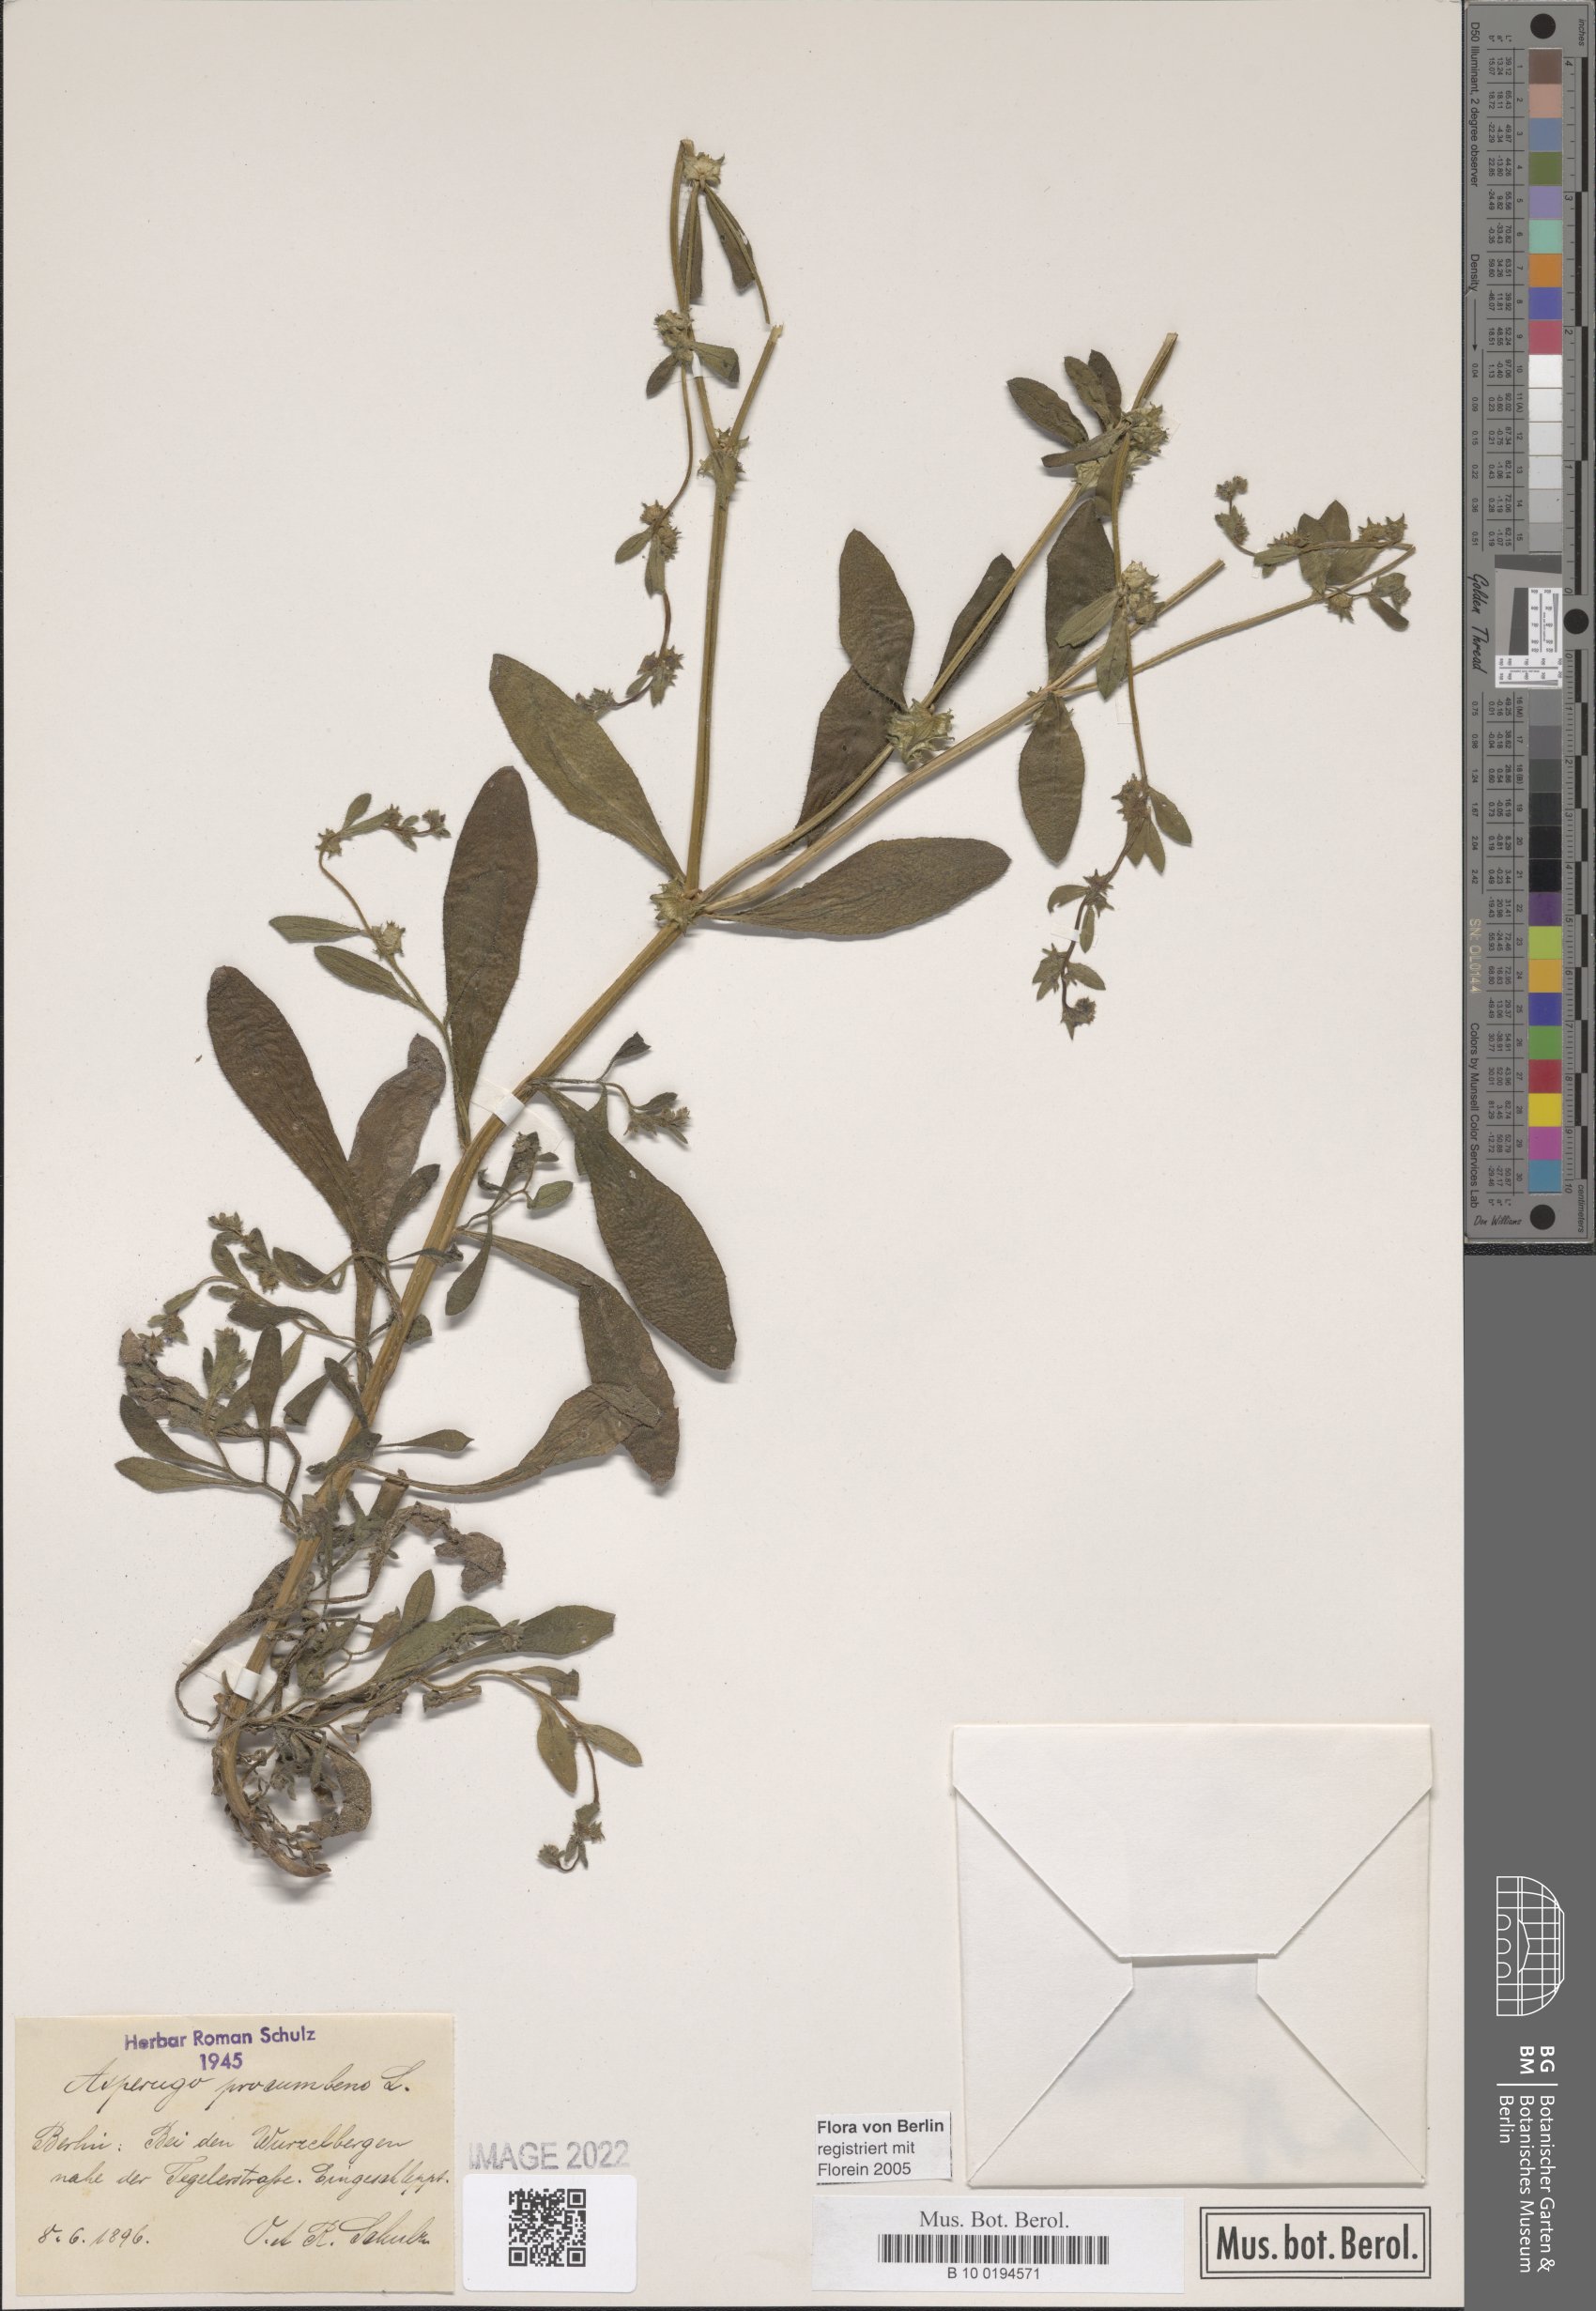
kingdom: Plantae
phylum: Tracheophyta
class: Magnoliopsida
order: Boraginales
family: Boraginaceae
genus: Asperugo
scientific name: Asperugo procumbens
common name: Madwort
